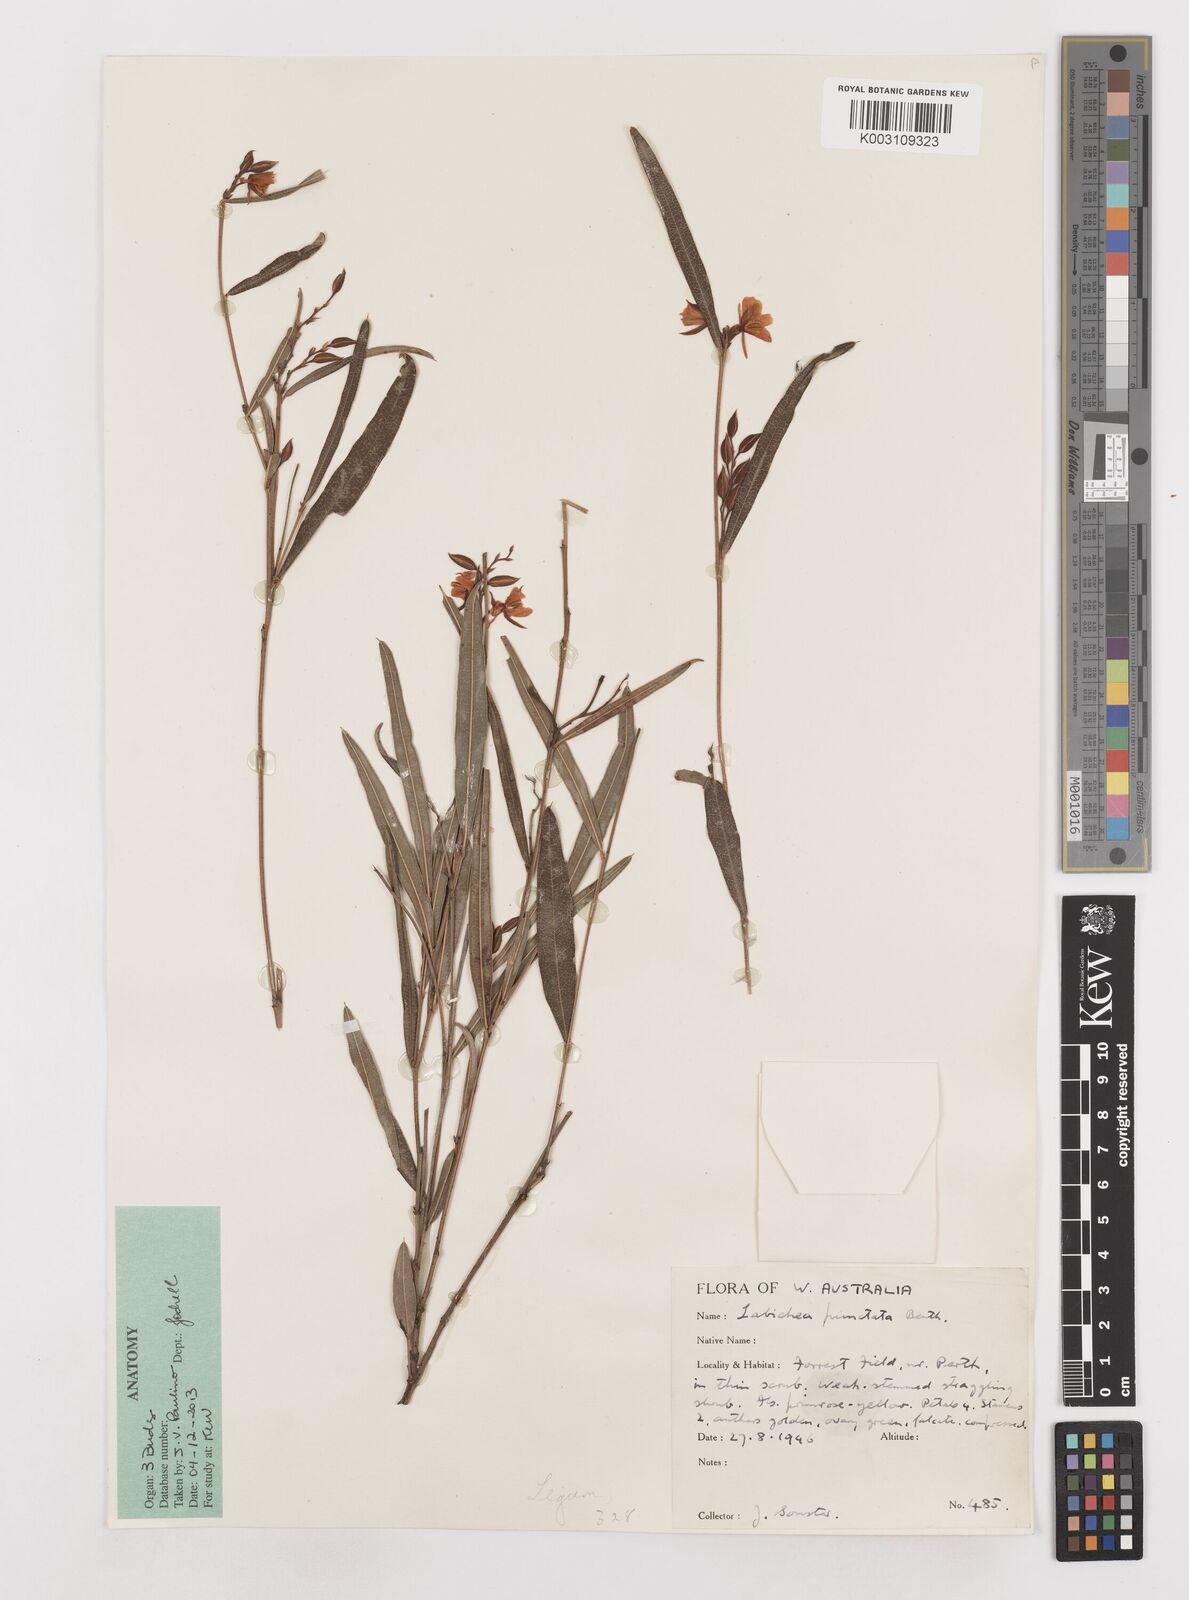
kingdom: Plantae
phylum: Tracheophyta
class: Magnoliopsida
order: Fabales
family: Fabaceae
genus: Labichea
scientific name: Labichea punctata
